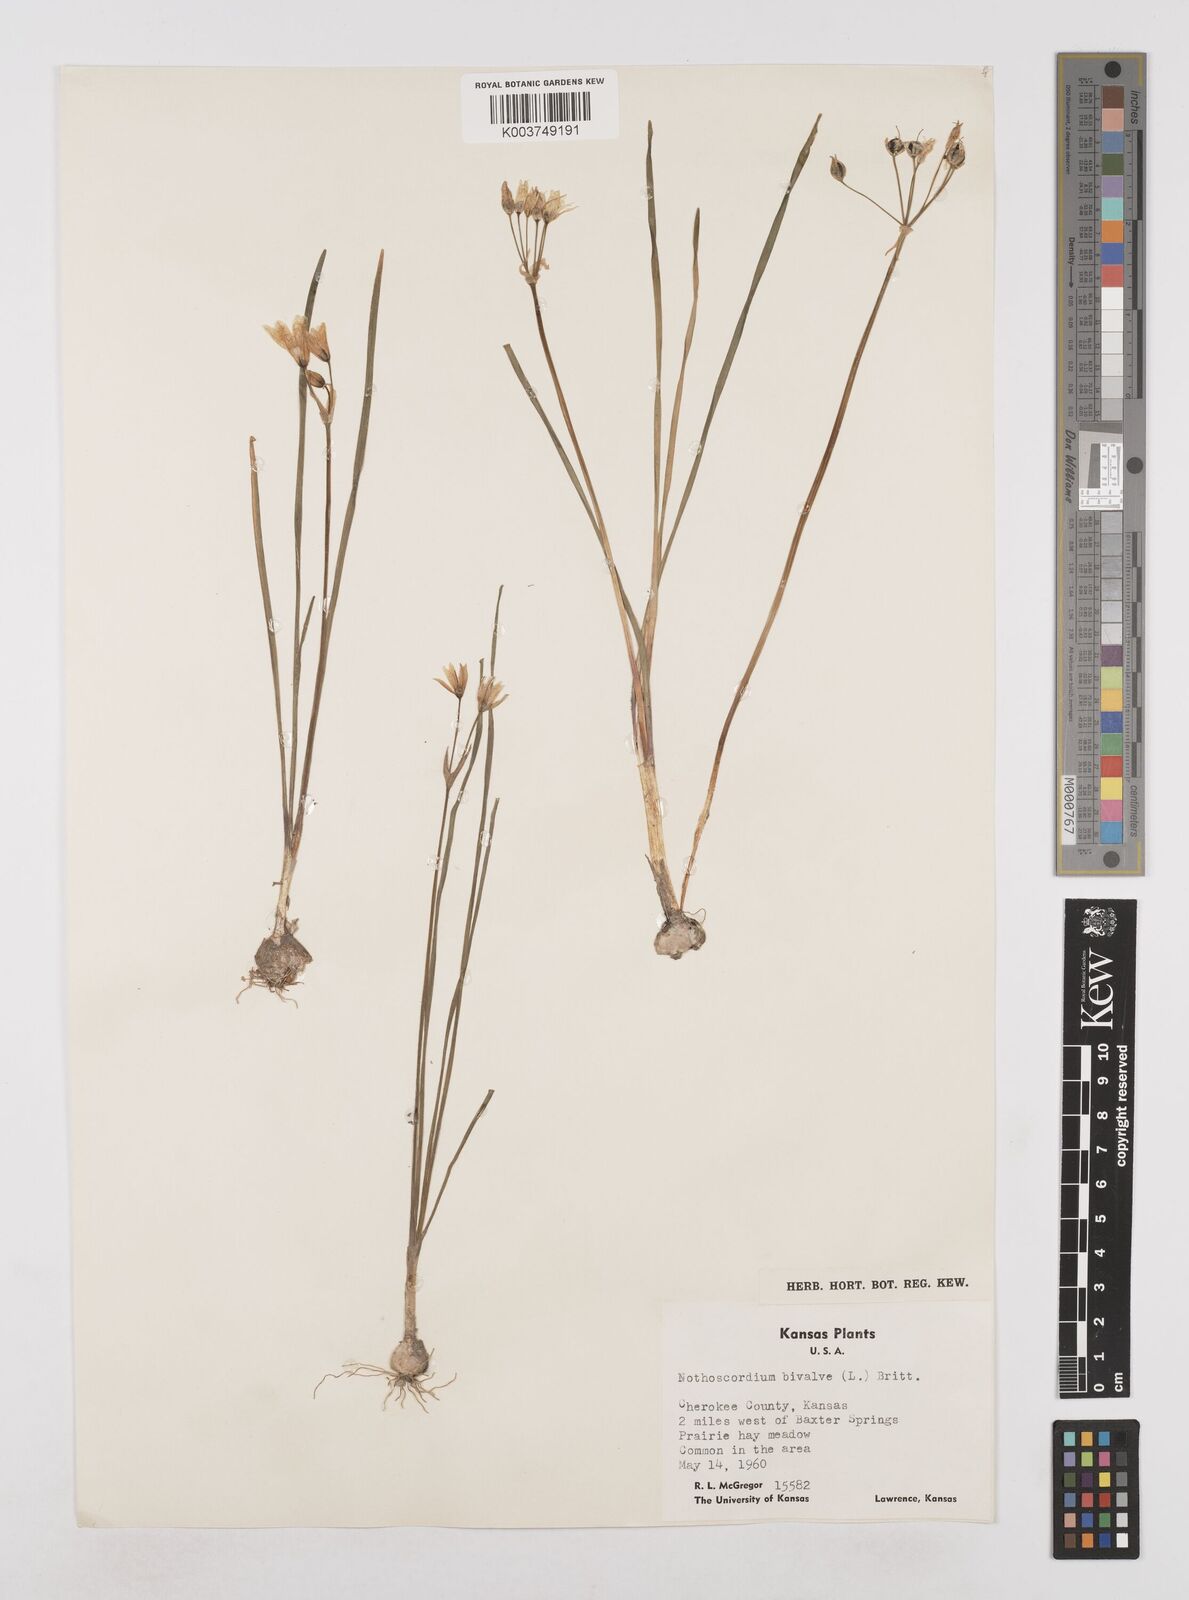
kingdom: Plantae
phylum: Tracheophyta
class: Liliopsida
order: Asparagales
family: Amaryllidaceae
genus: Nothoscordum
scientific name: Nothoscordum bivalve
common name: Crow-poison
